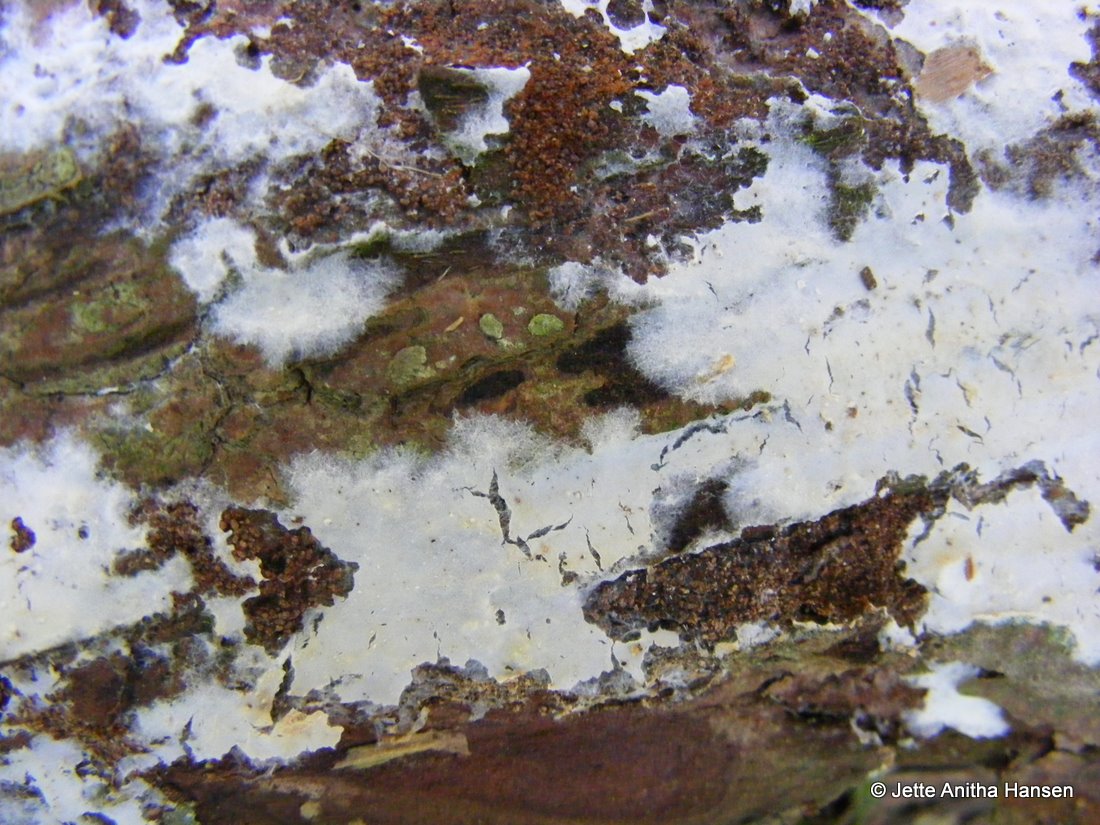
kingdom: Fungi
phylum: Basidiomycota
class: Agaricomycetes
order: Atheliales
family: Atheliaceae
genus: Leptosporomyces
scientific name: Leptosporomyces fuscostratus
